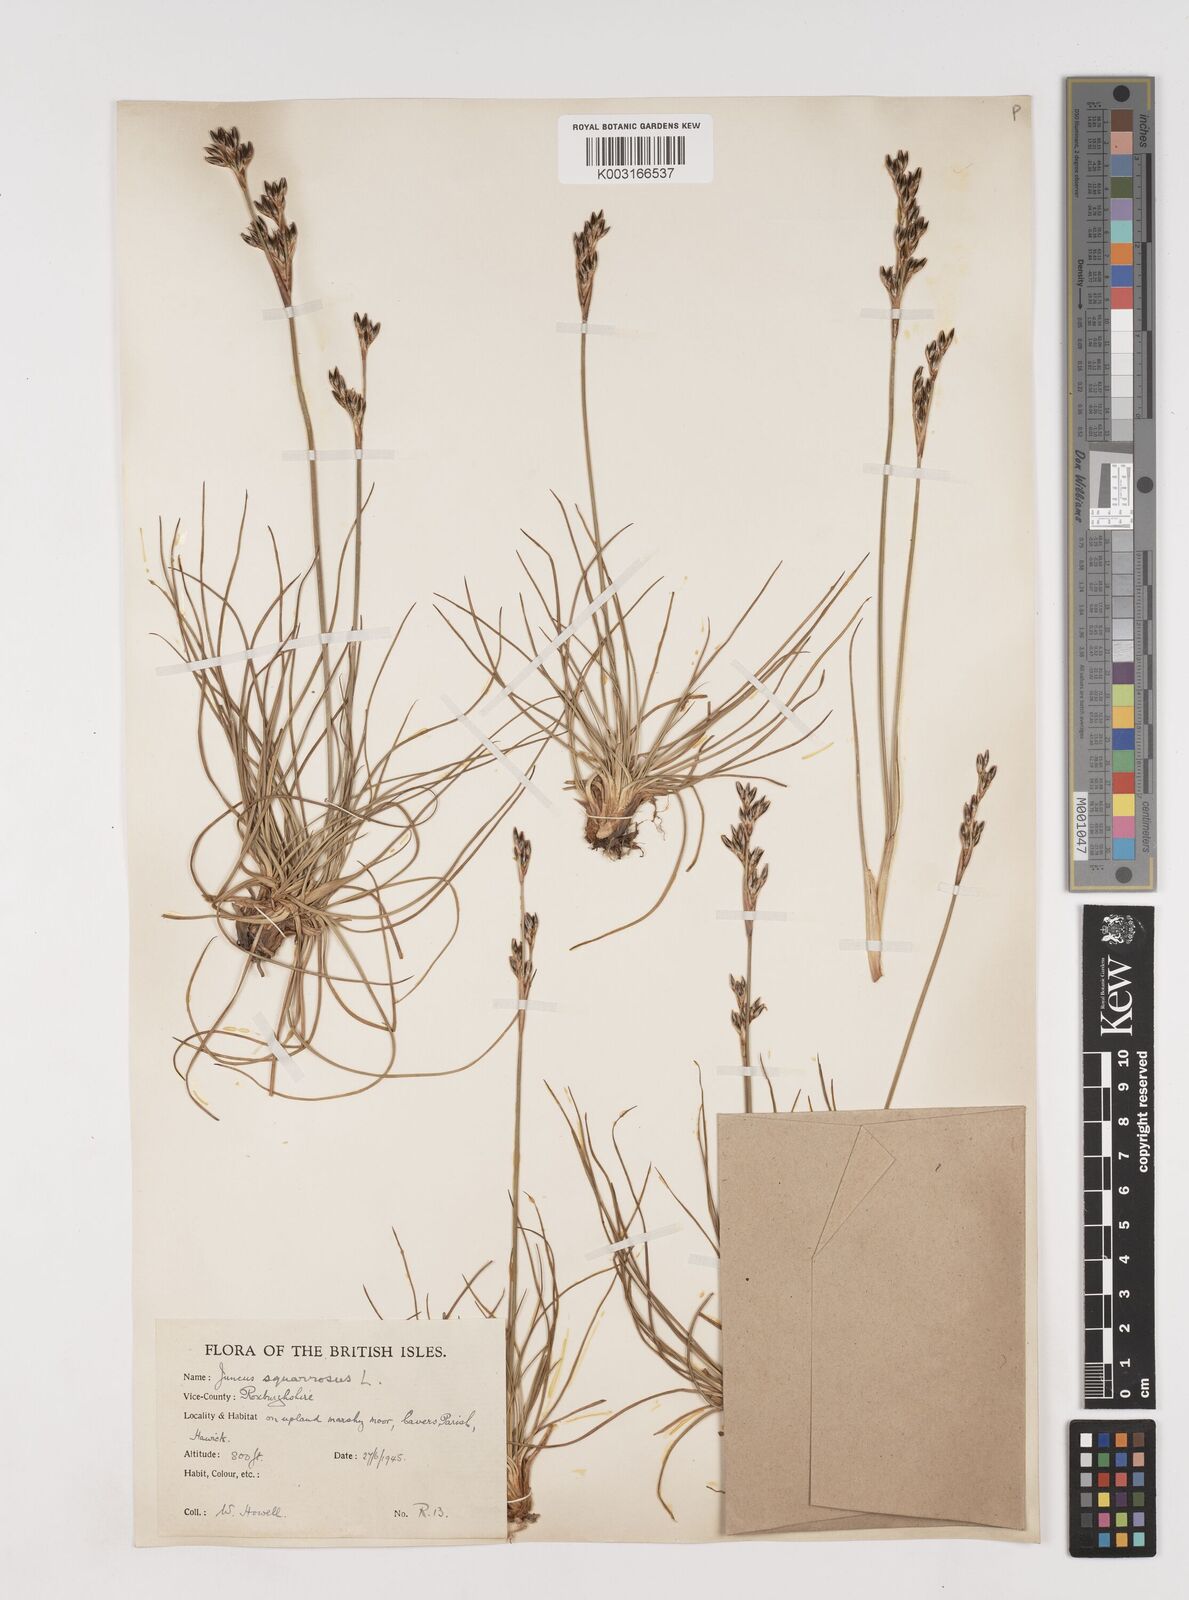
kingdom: Plantae
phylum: Tracheophyta
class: Liliopsida
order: Poales
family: Juncaceae
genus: Juncus
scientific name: Juncus squarrosus
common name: Heath rush
